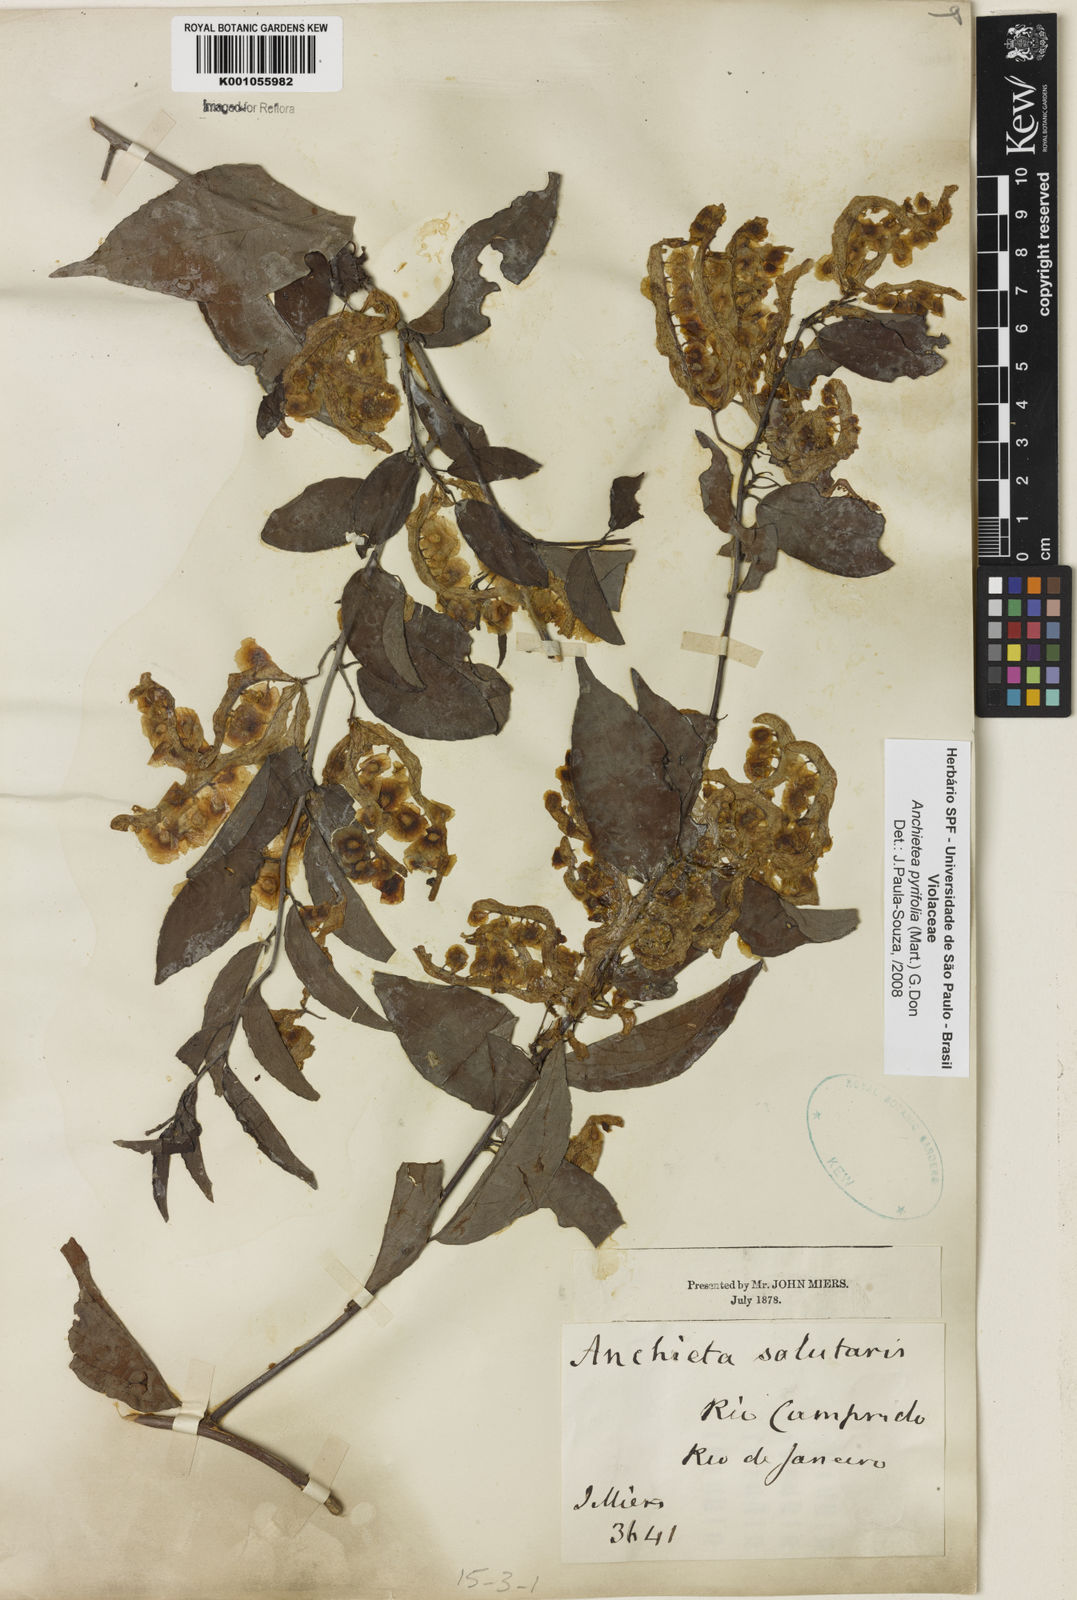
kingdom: Plantae
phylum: Tracheophyta
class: Magnoliopsida
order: Malpighiales
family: Violaceae
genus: Anchietea
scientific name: Anchietea pyrifolia
